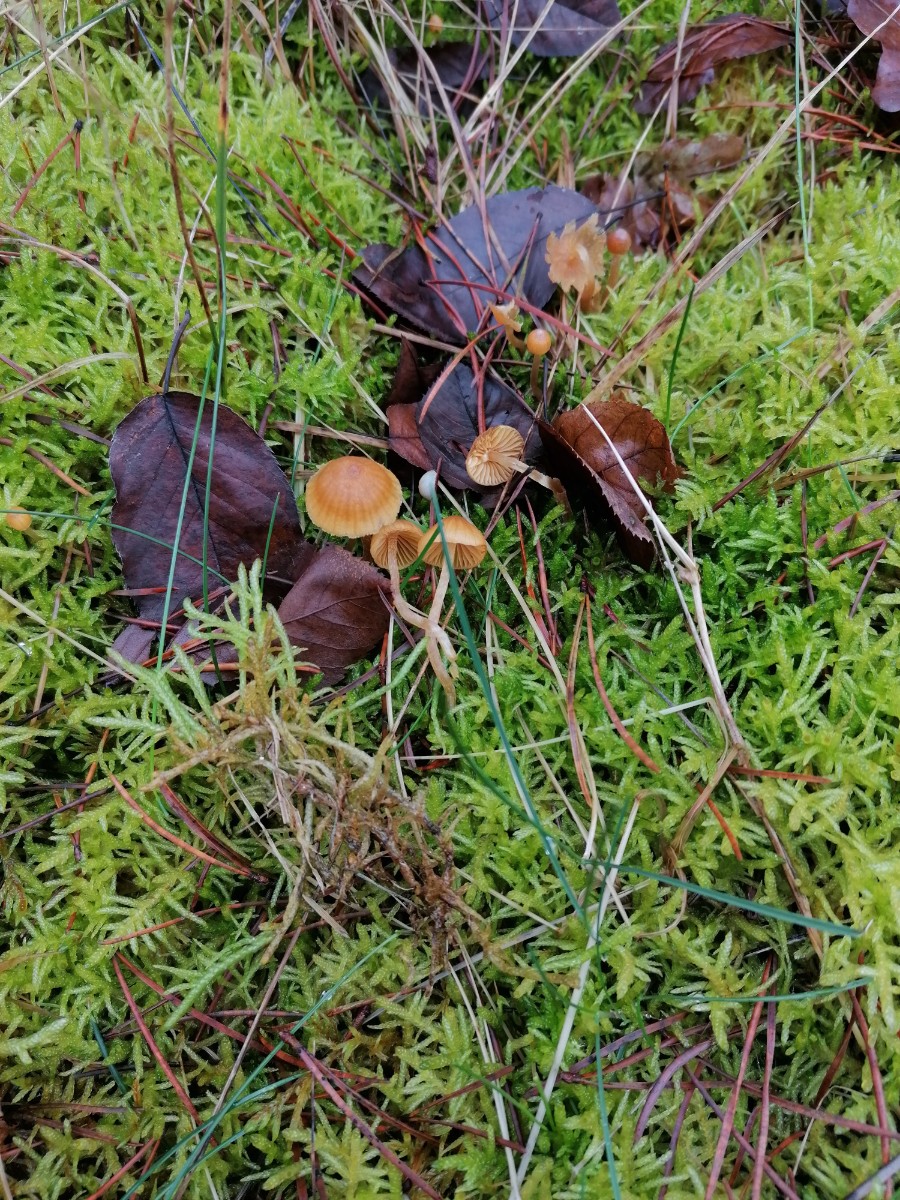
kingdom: Fungi
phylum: Basidiomycota
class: Agaricomycetes
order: Agaricales
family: Hymenogastraceae
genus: Galerina
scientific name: Galerina
